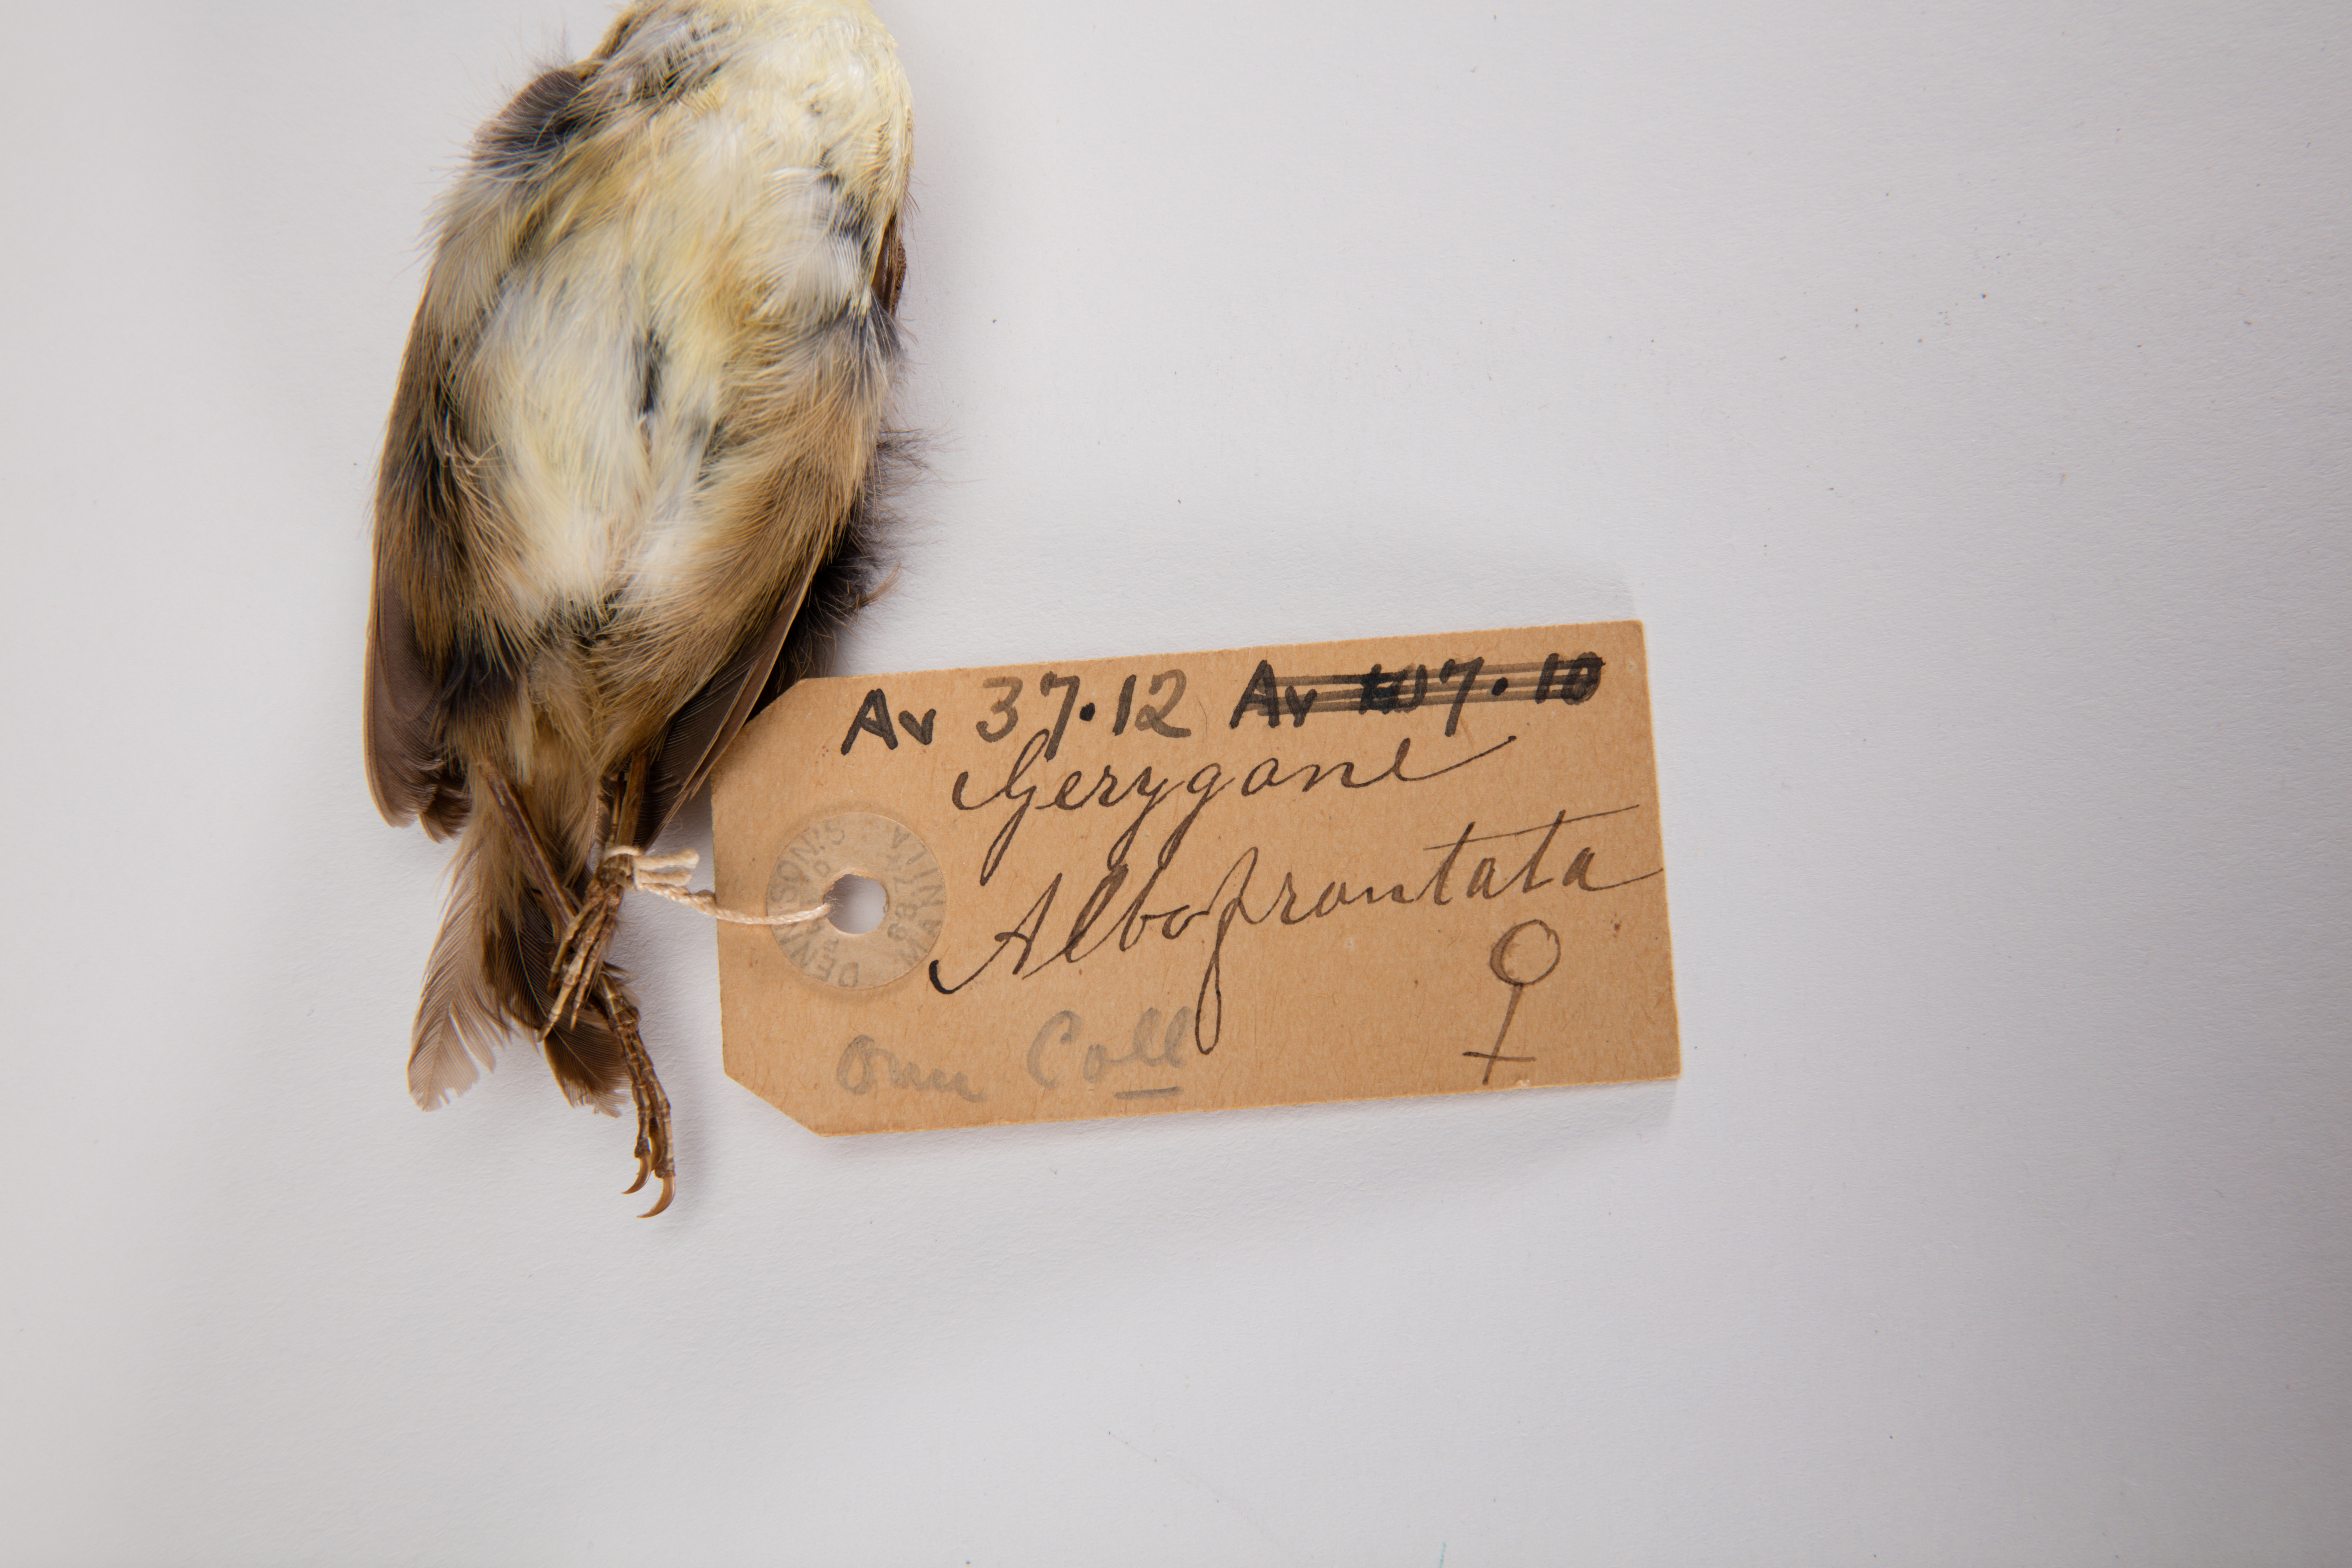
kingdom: Animalia
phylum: Chordata
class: Aves
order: Passeriformes
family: Acanthizidae
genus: Gerygone
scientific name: Gerygone albofrontata
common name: Chatham gerygone
